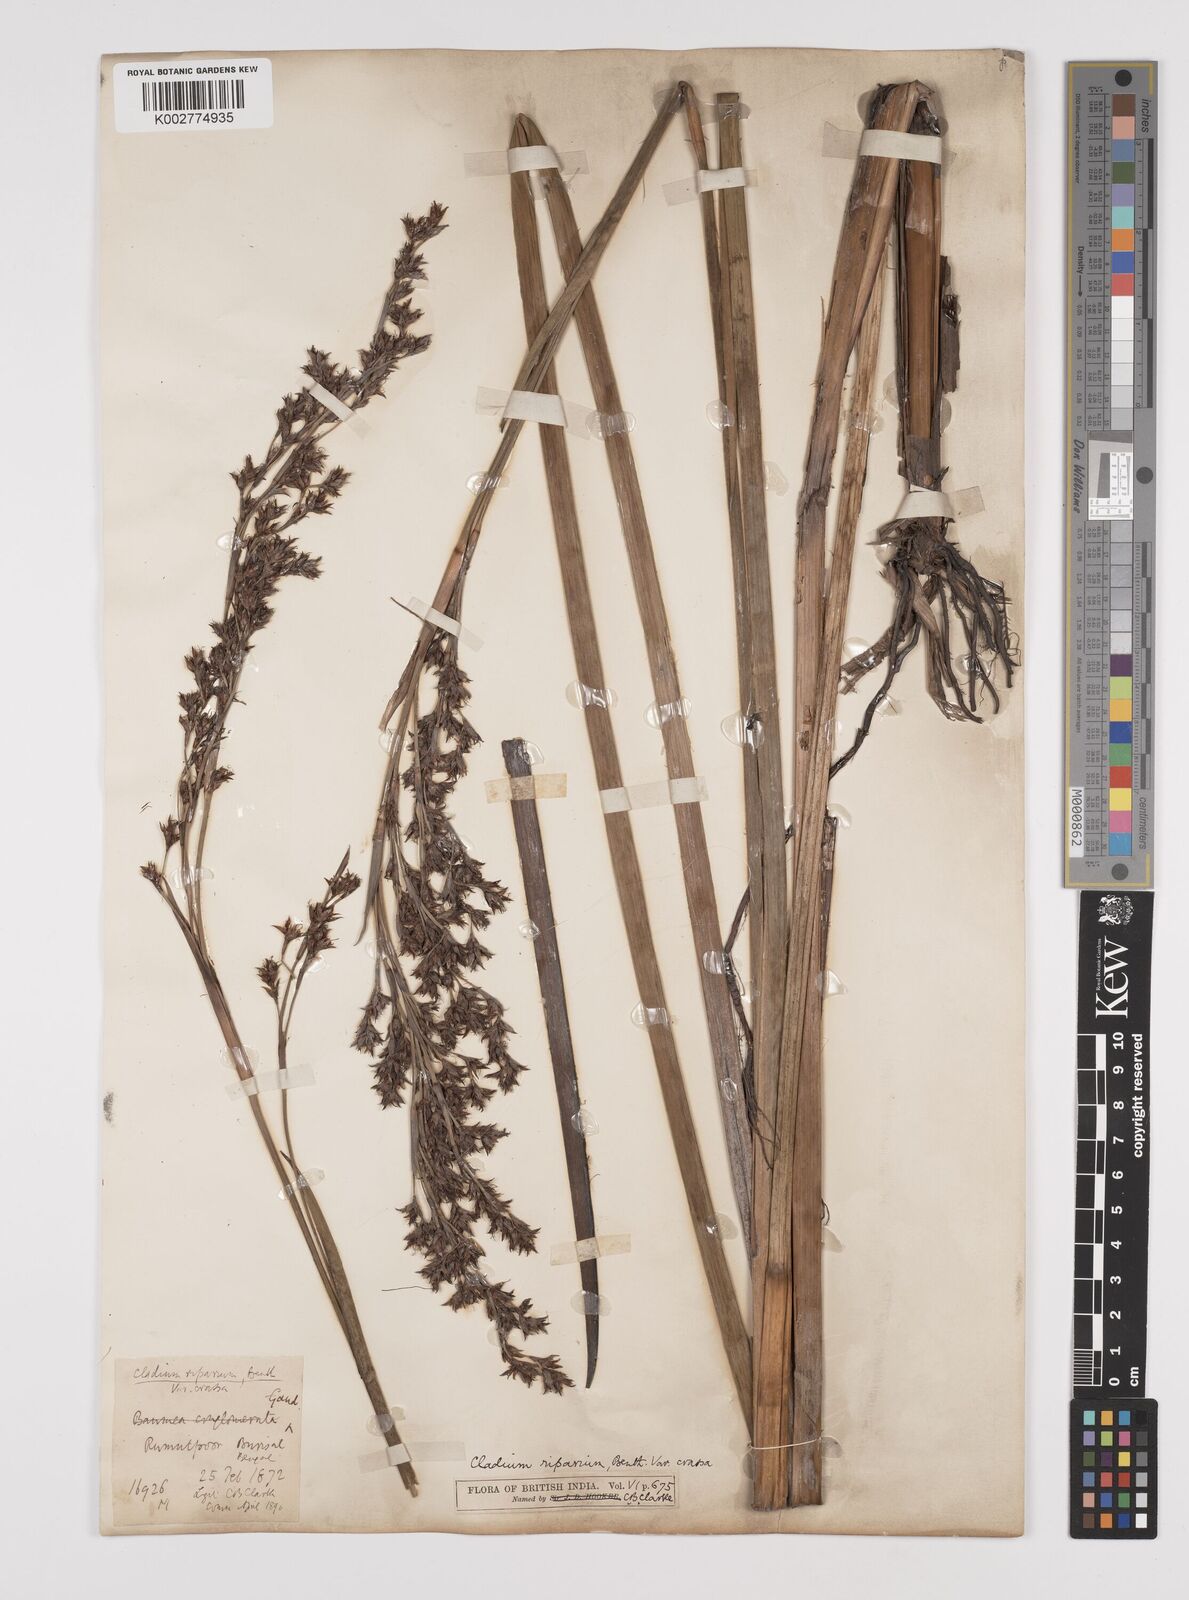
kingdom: Plantae
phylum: Tracheophyta
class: Liliopsida
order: Poales
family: Cyperaceae
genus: Machaerina
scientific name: Machaerina rubiginosa
